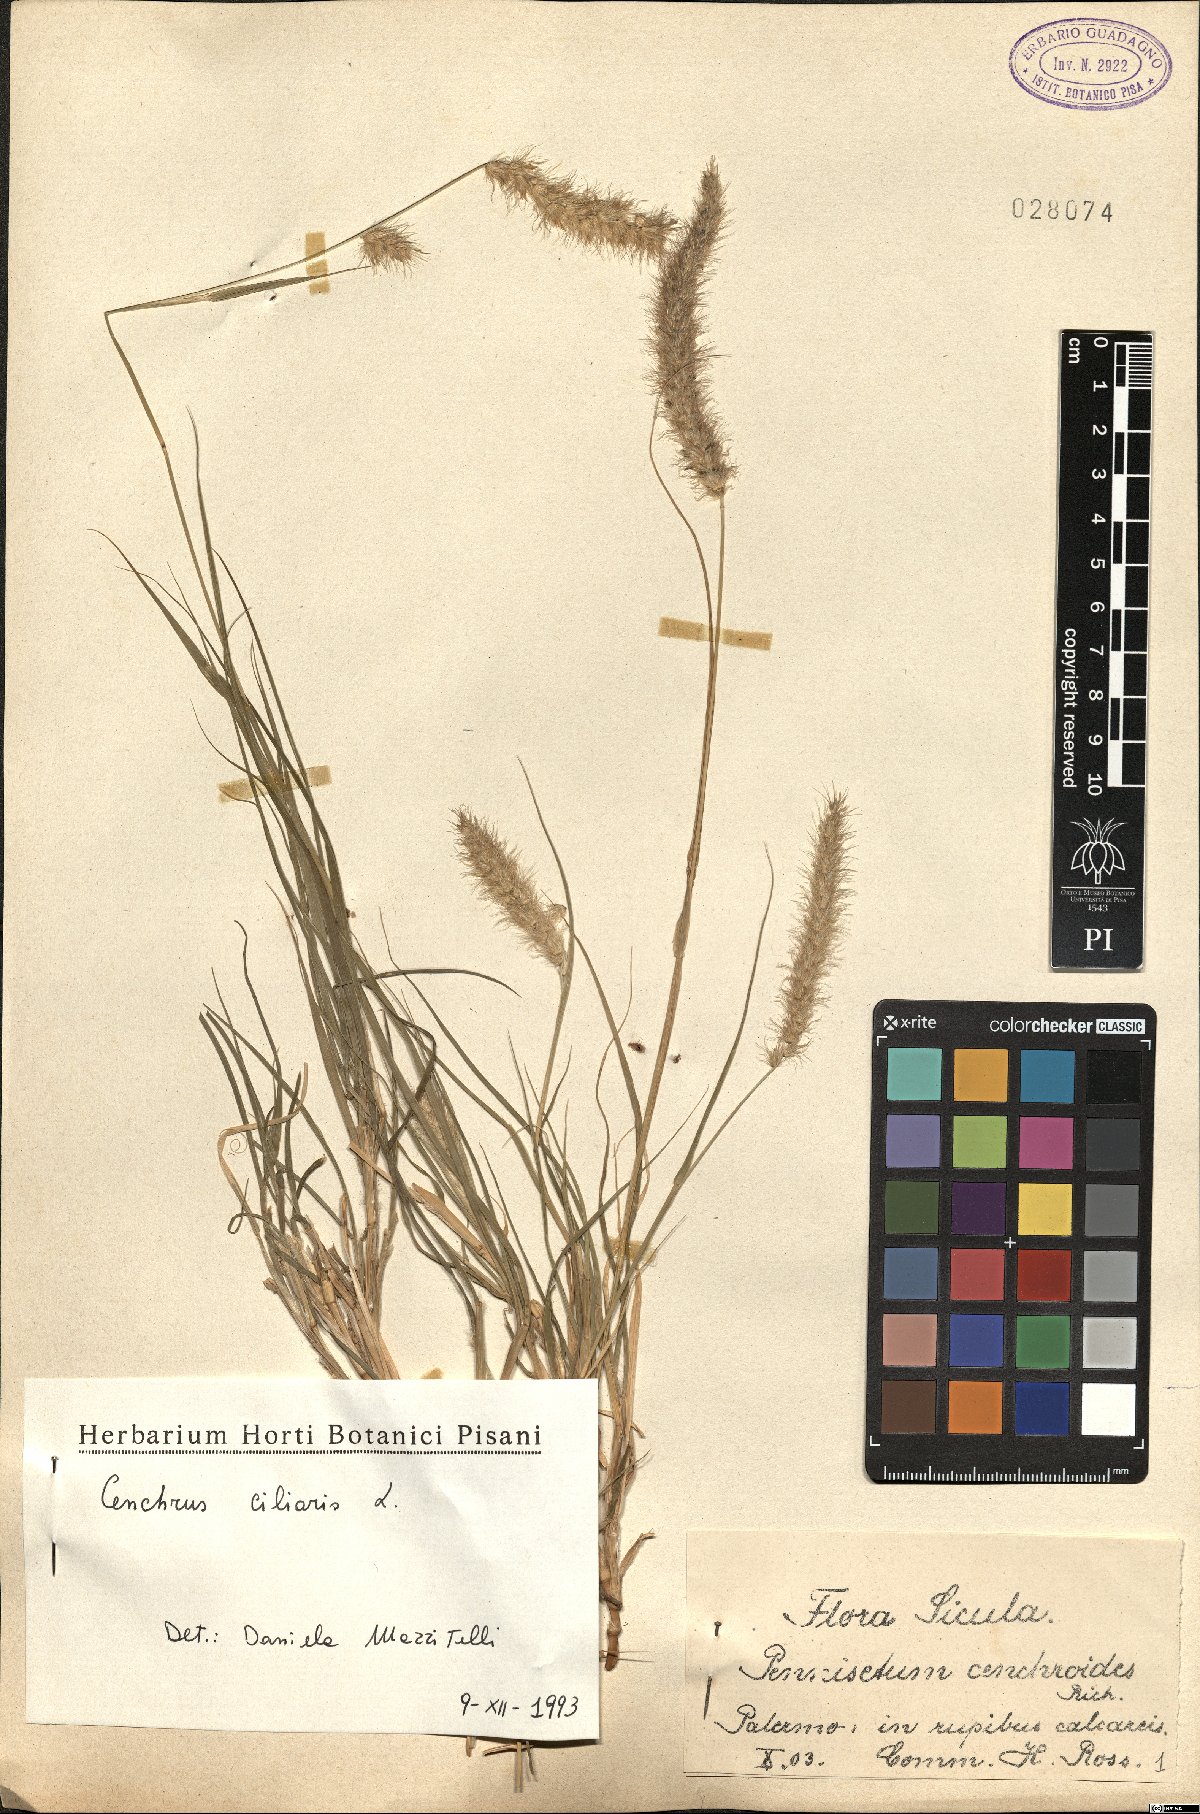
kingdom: Plantae
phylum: Tracheophyta
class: Liliopsida
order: Poales
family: Poaceae
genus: Cenchrus
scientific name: Cenchrus ciliaris
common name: Buffelgrass
